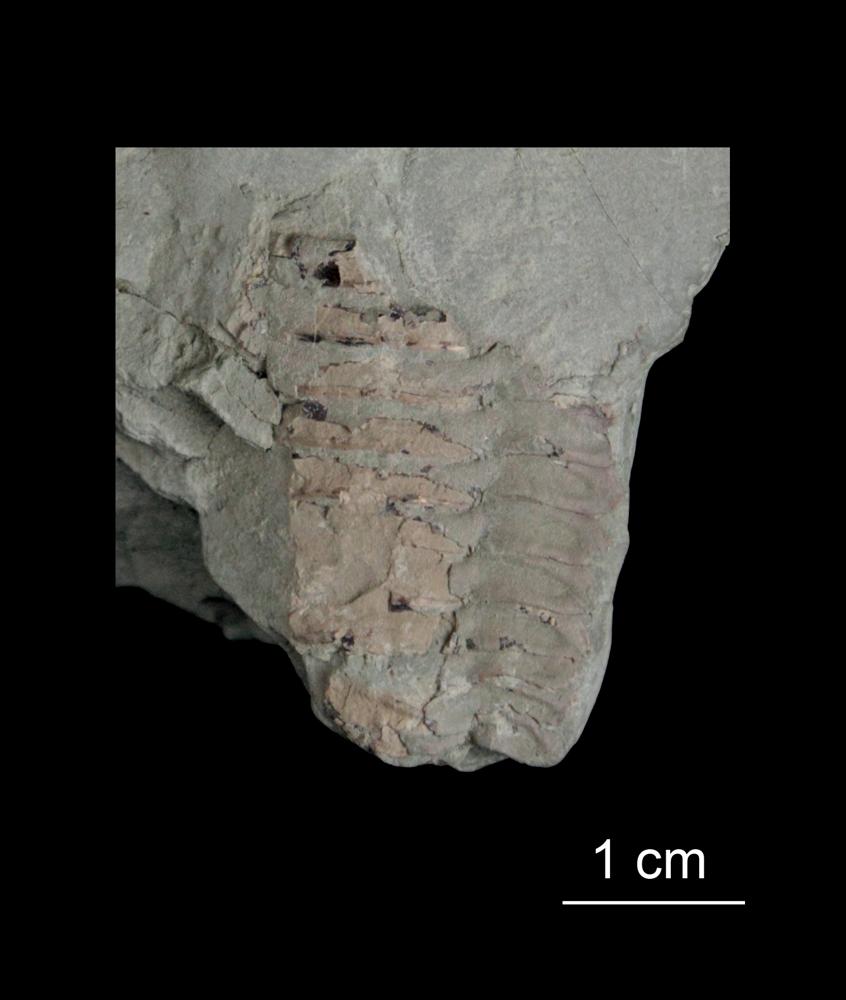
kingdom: Animalia
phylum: Arthropoda
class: Trilobita
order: Redlichiida
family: Holmiidae
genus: Schmidtiellus
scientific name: Schmidtiellus Olenellus mickwitzi
